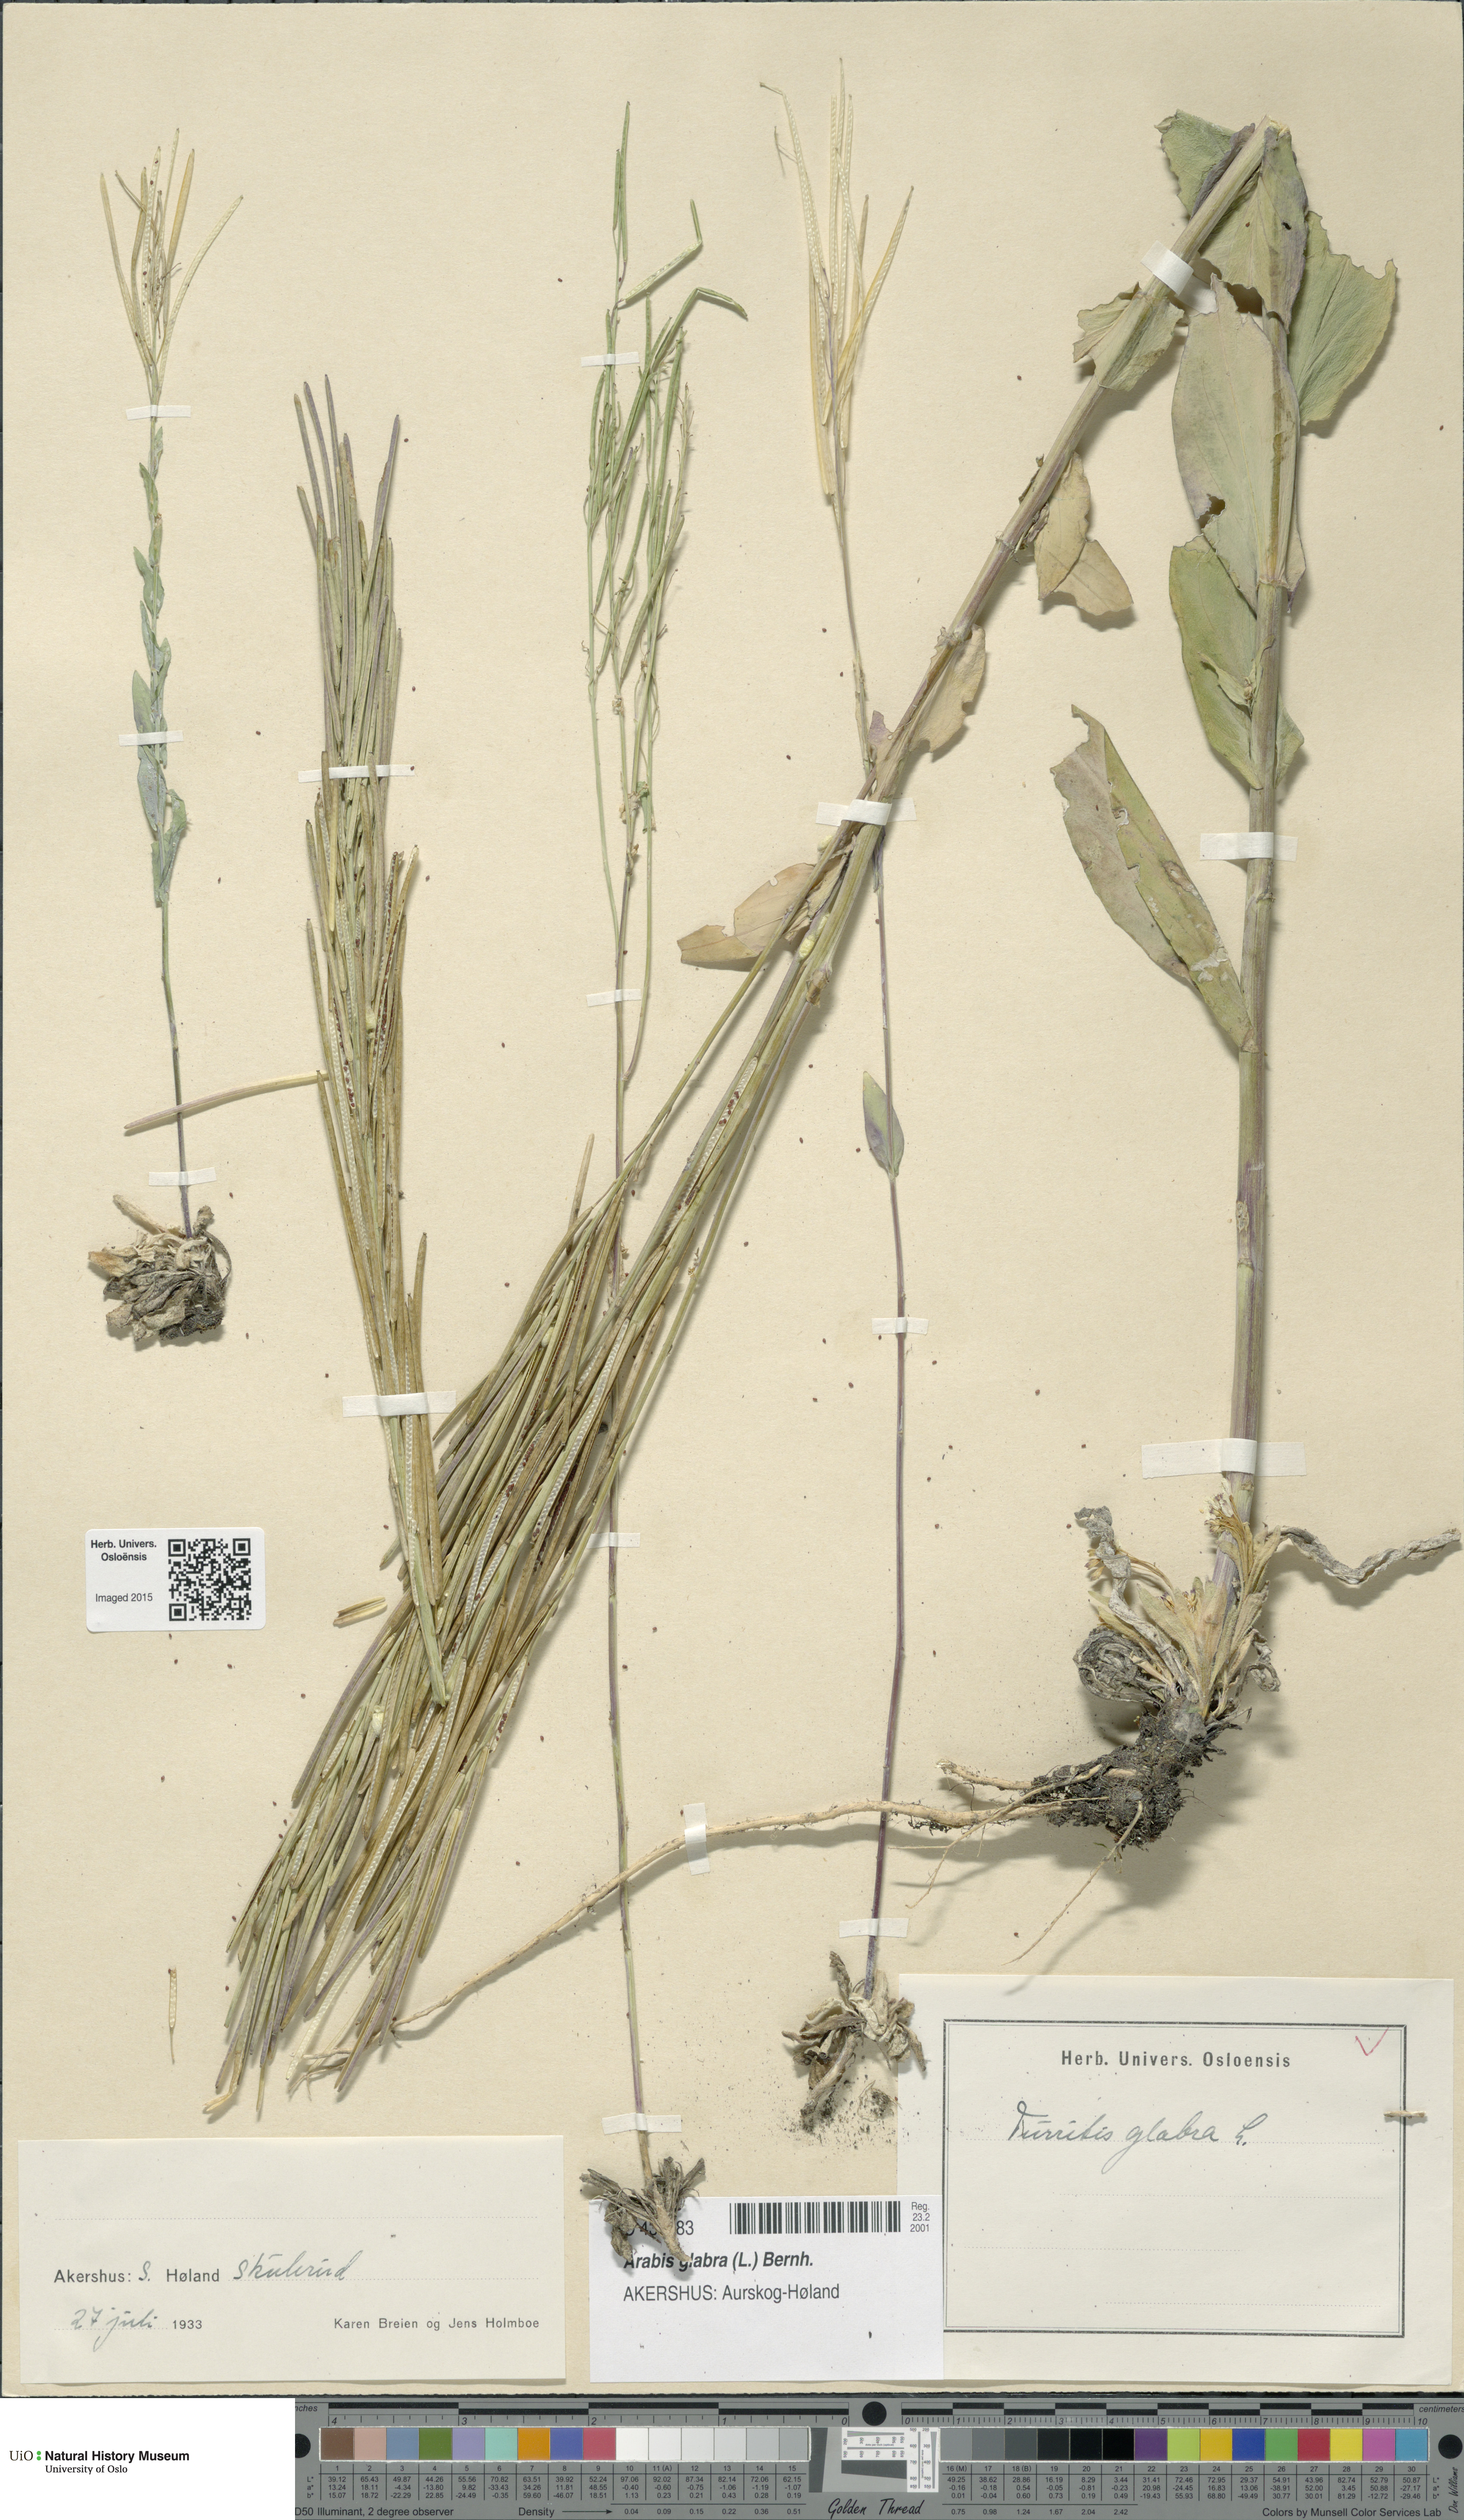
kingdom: Plantae
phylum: Tracheophyta
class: Magnoliopsida
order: Brassicales
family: Brassicaceae
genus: Turritis
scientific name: Turritis glabra
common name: Tower rockcress
